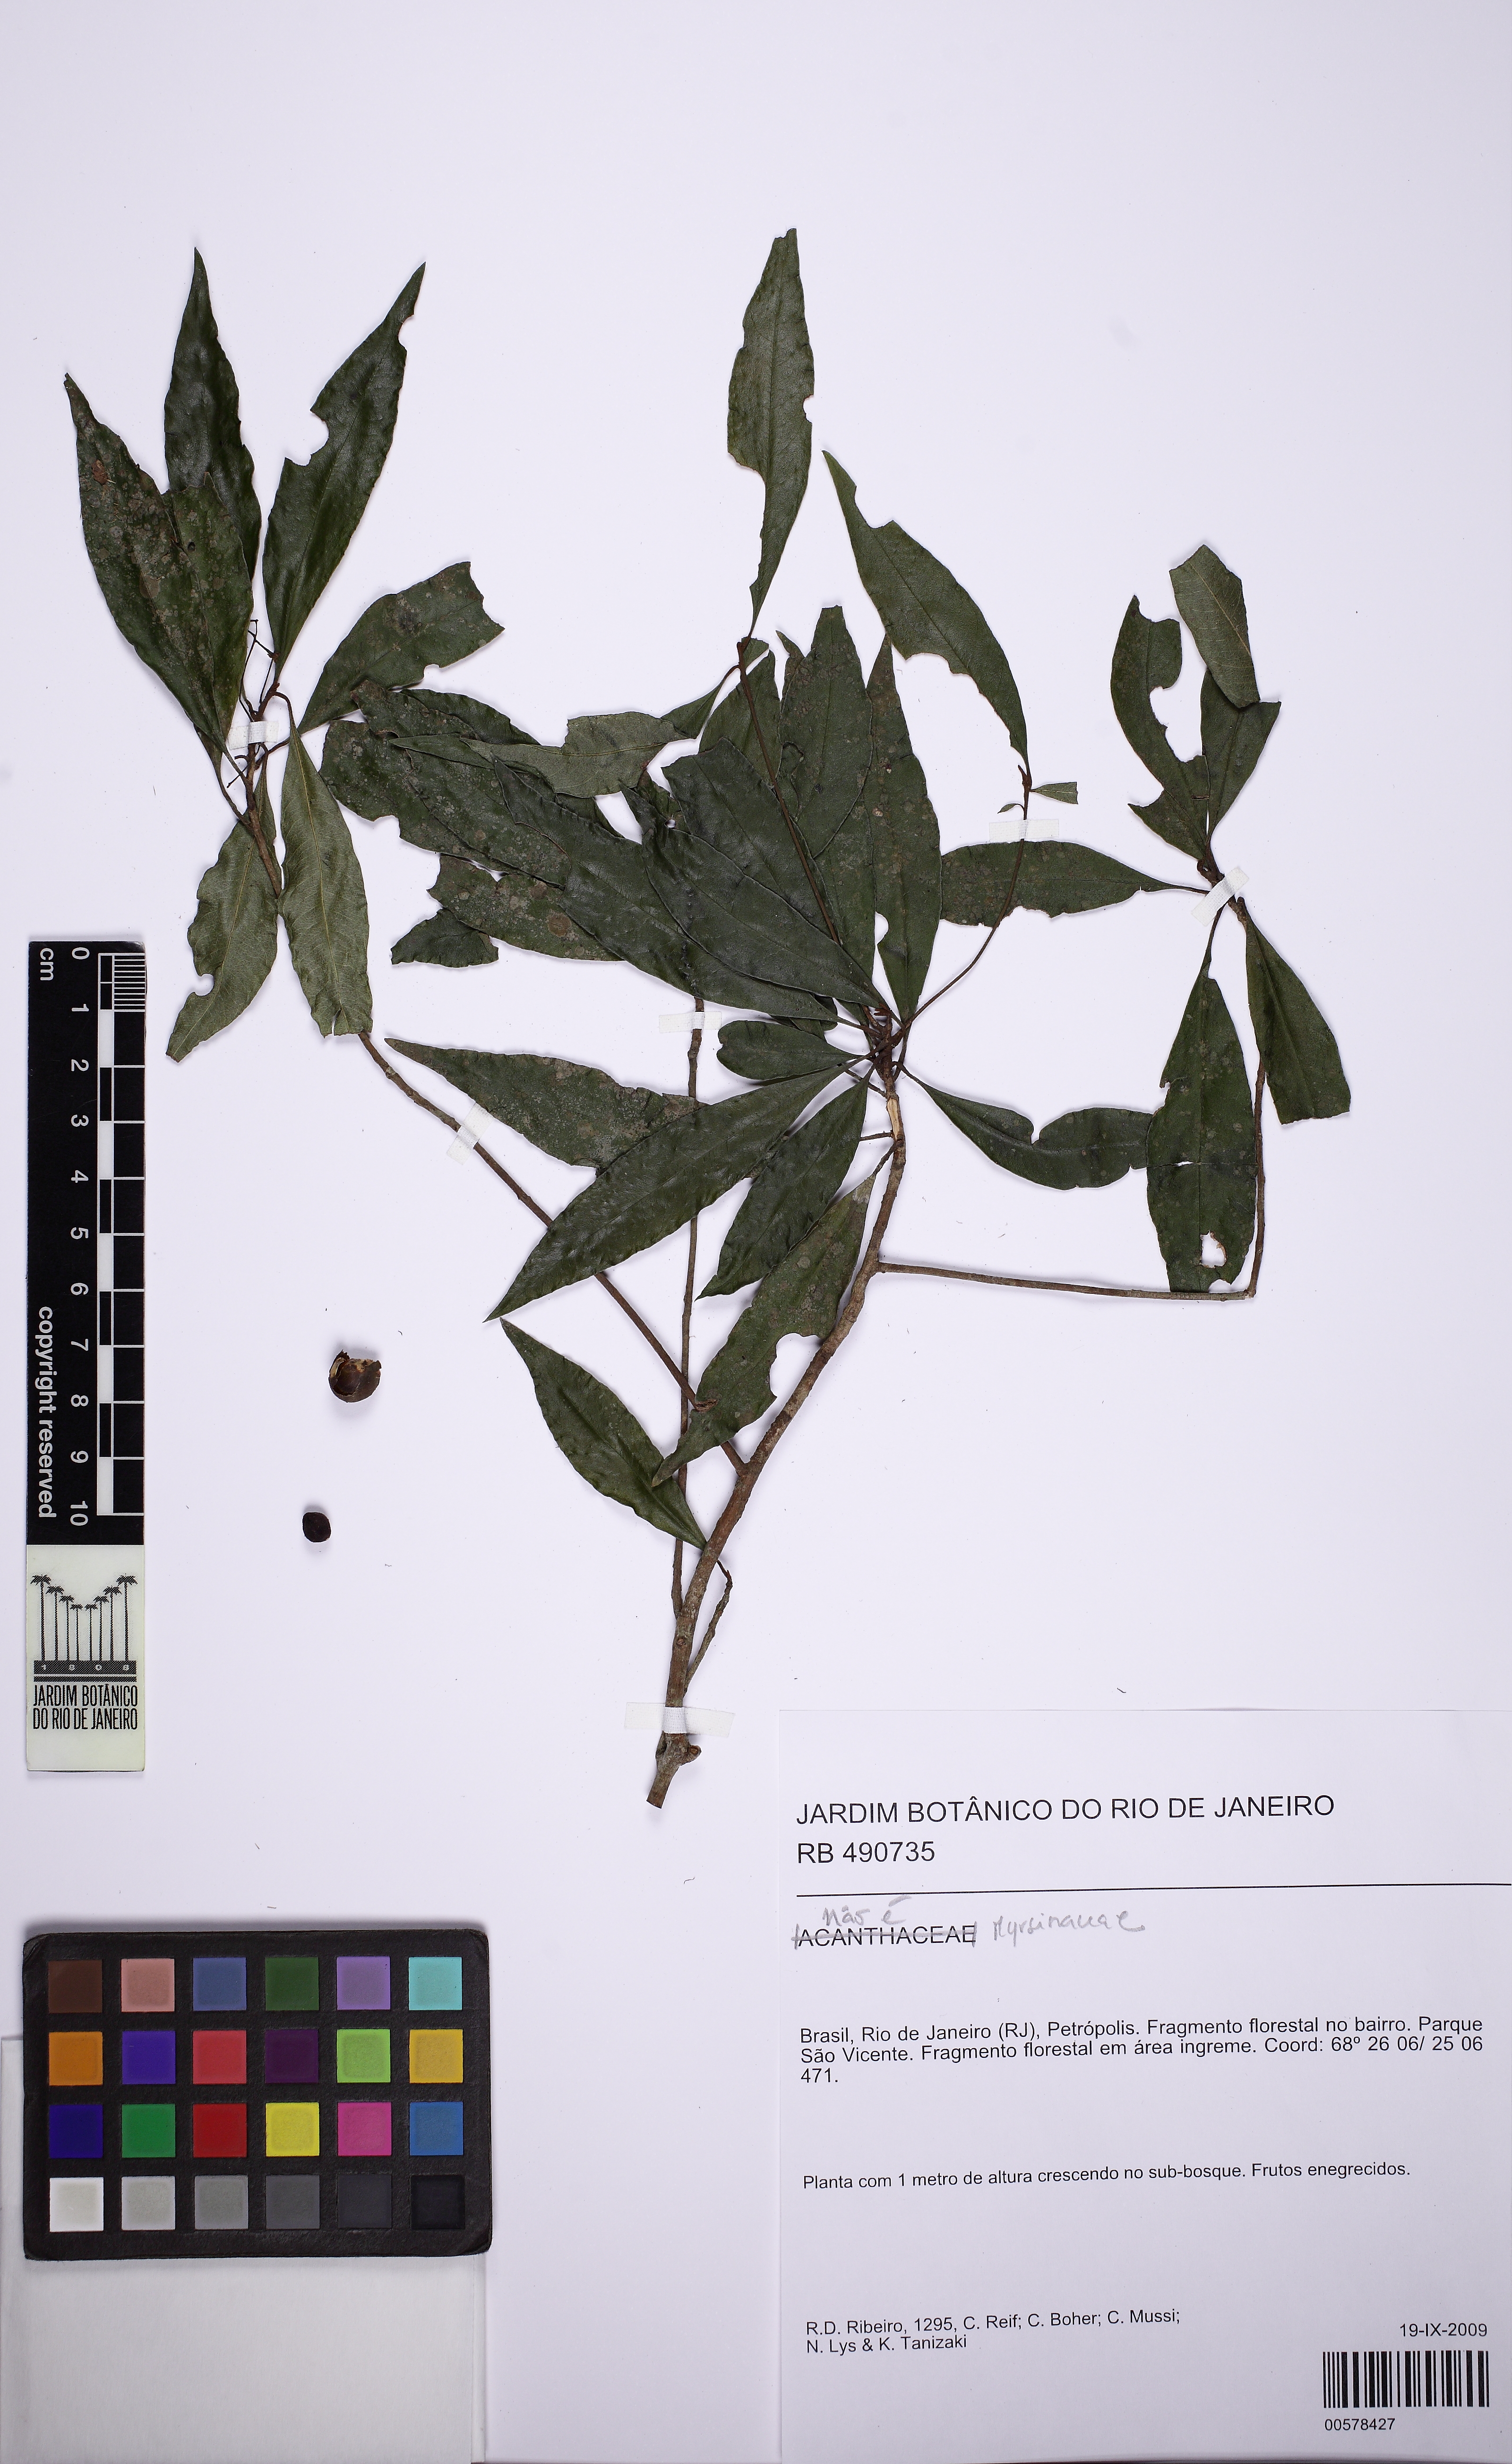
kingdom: Plantae
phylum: Tracheophyta
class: Magnoliopsida
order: Ericales
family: Primulaceae
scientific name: Primulaceae
